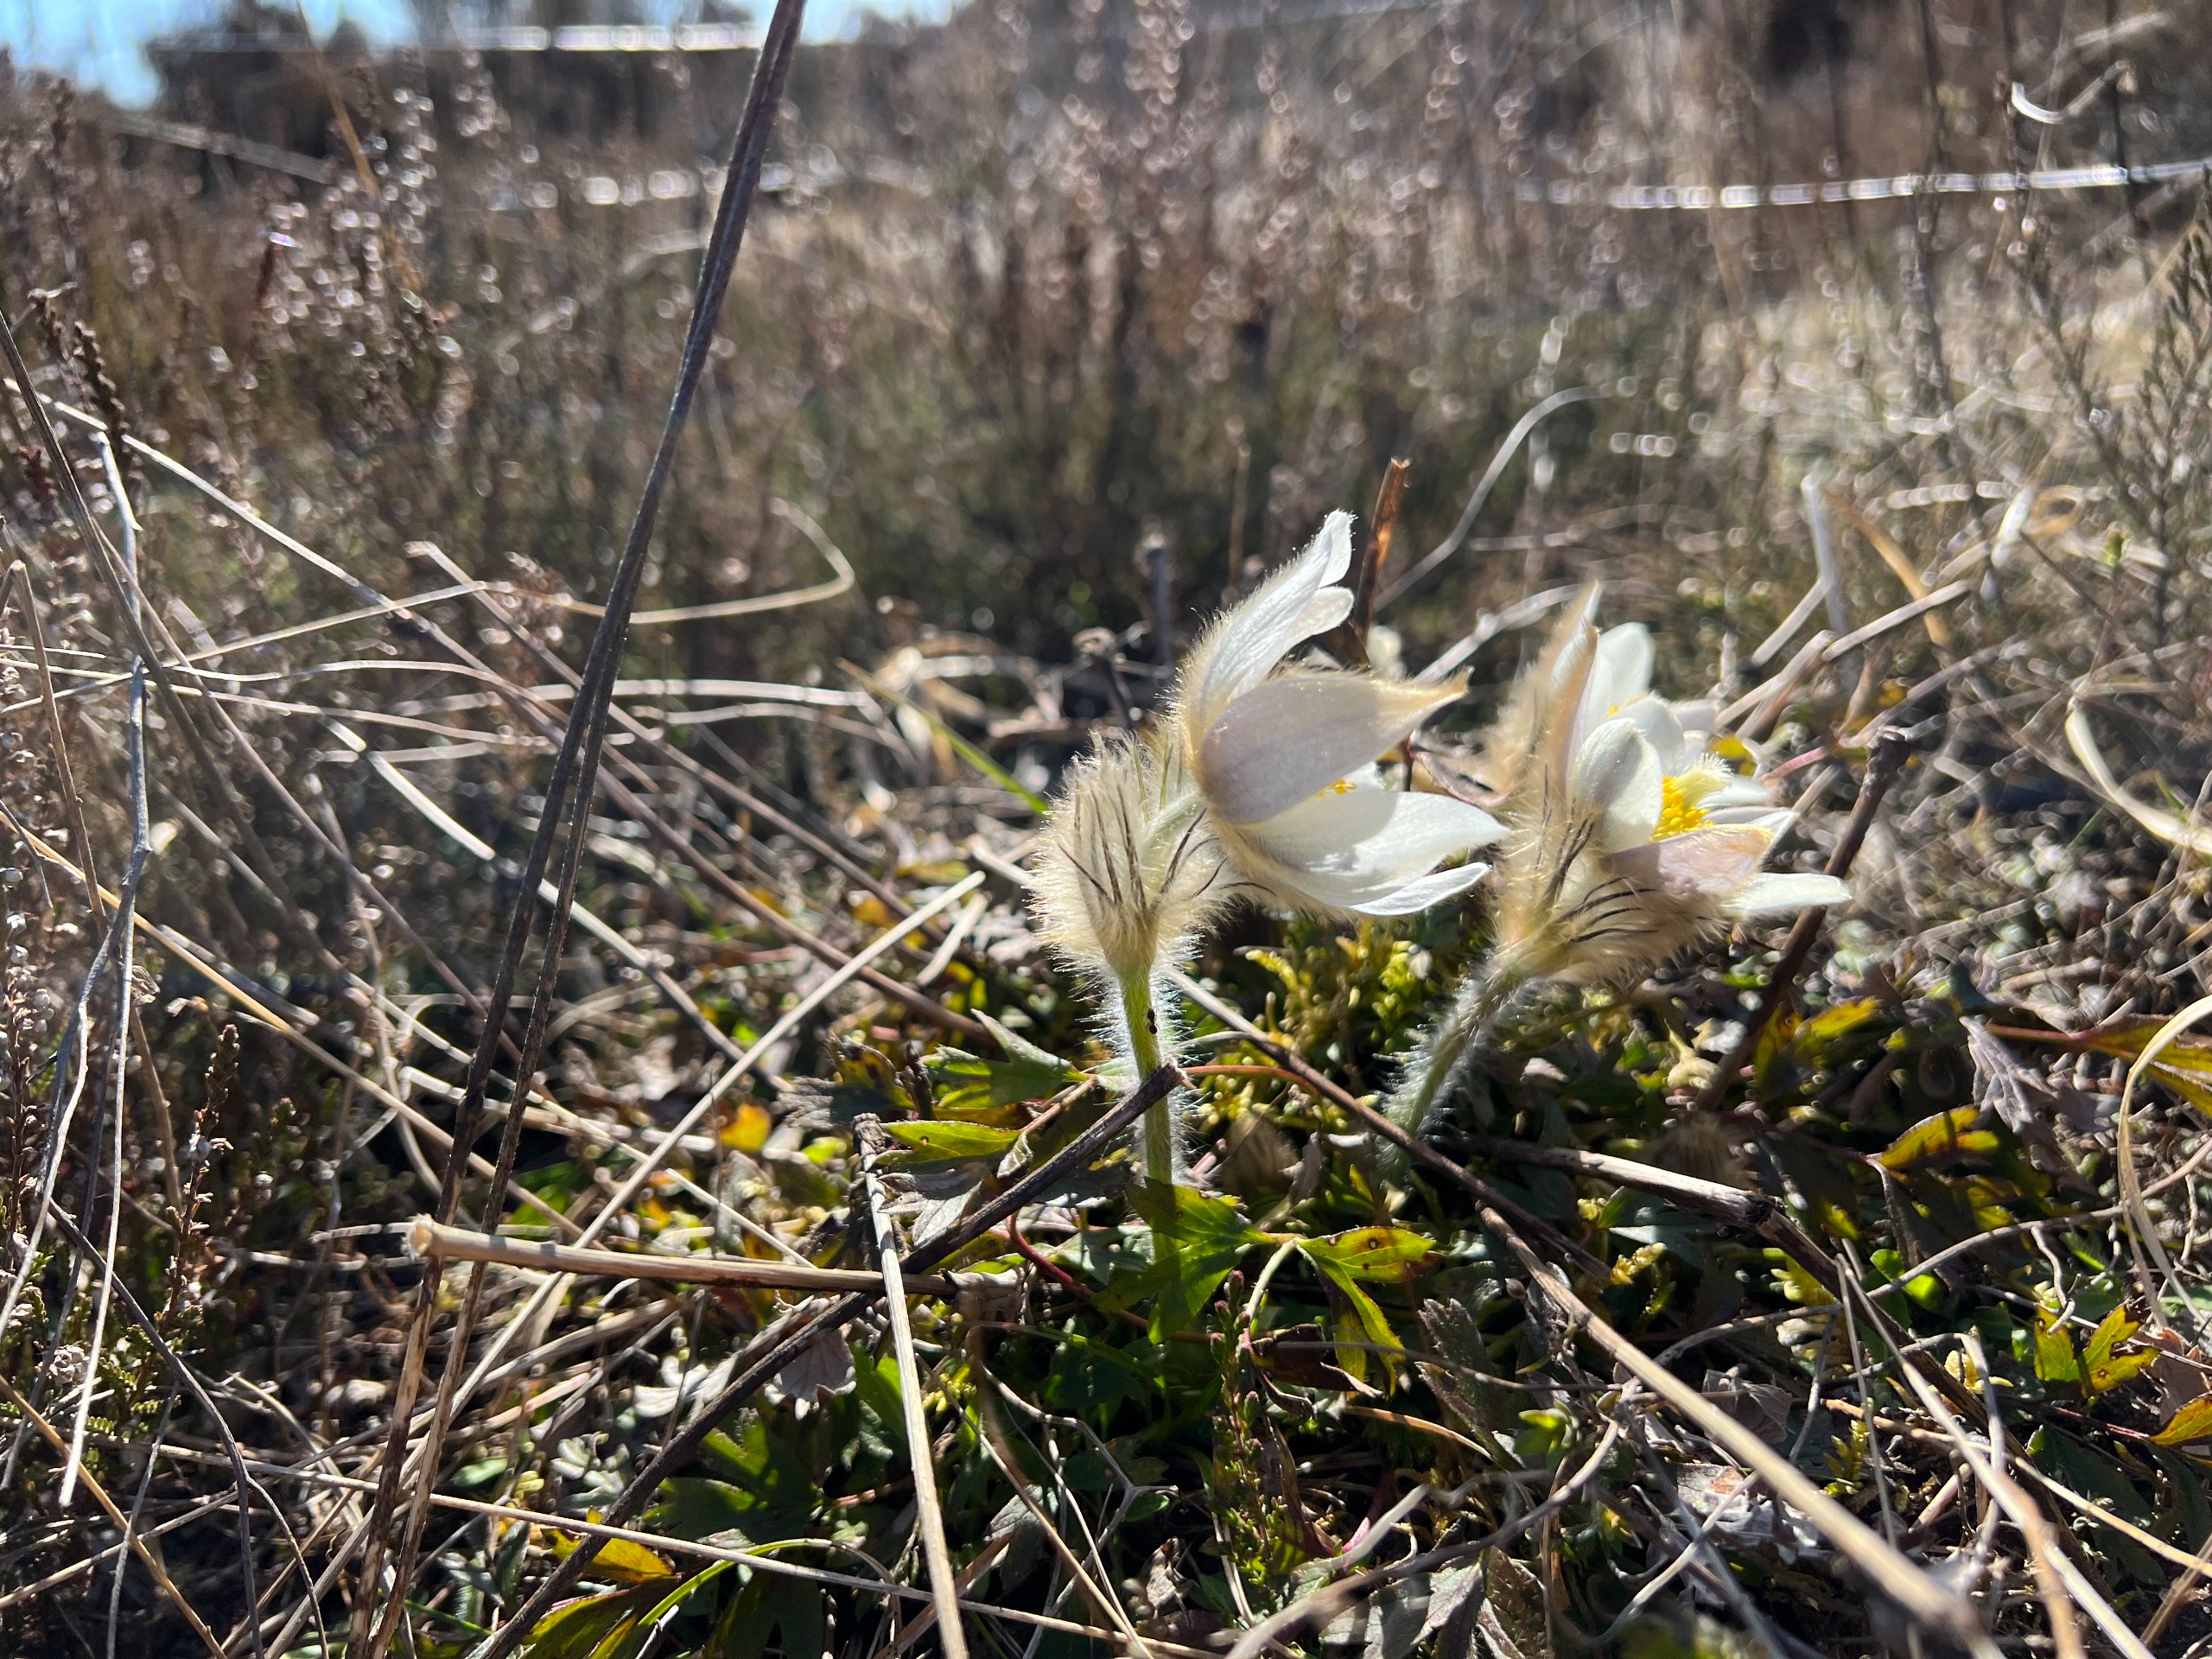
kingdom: Plantae
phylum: Tracheophyta
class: Magnoliopsida
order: Ranunculales
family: Ranunculaceae
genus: Pulsatilla
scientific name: Pulsatilla vernalis
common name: Vår-kobjælde
